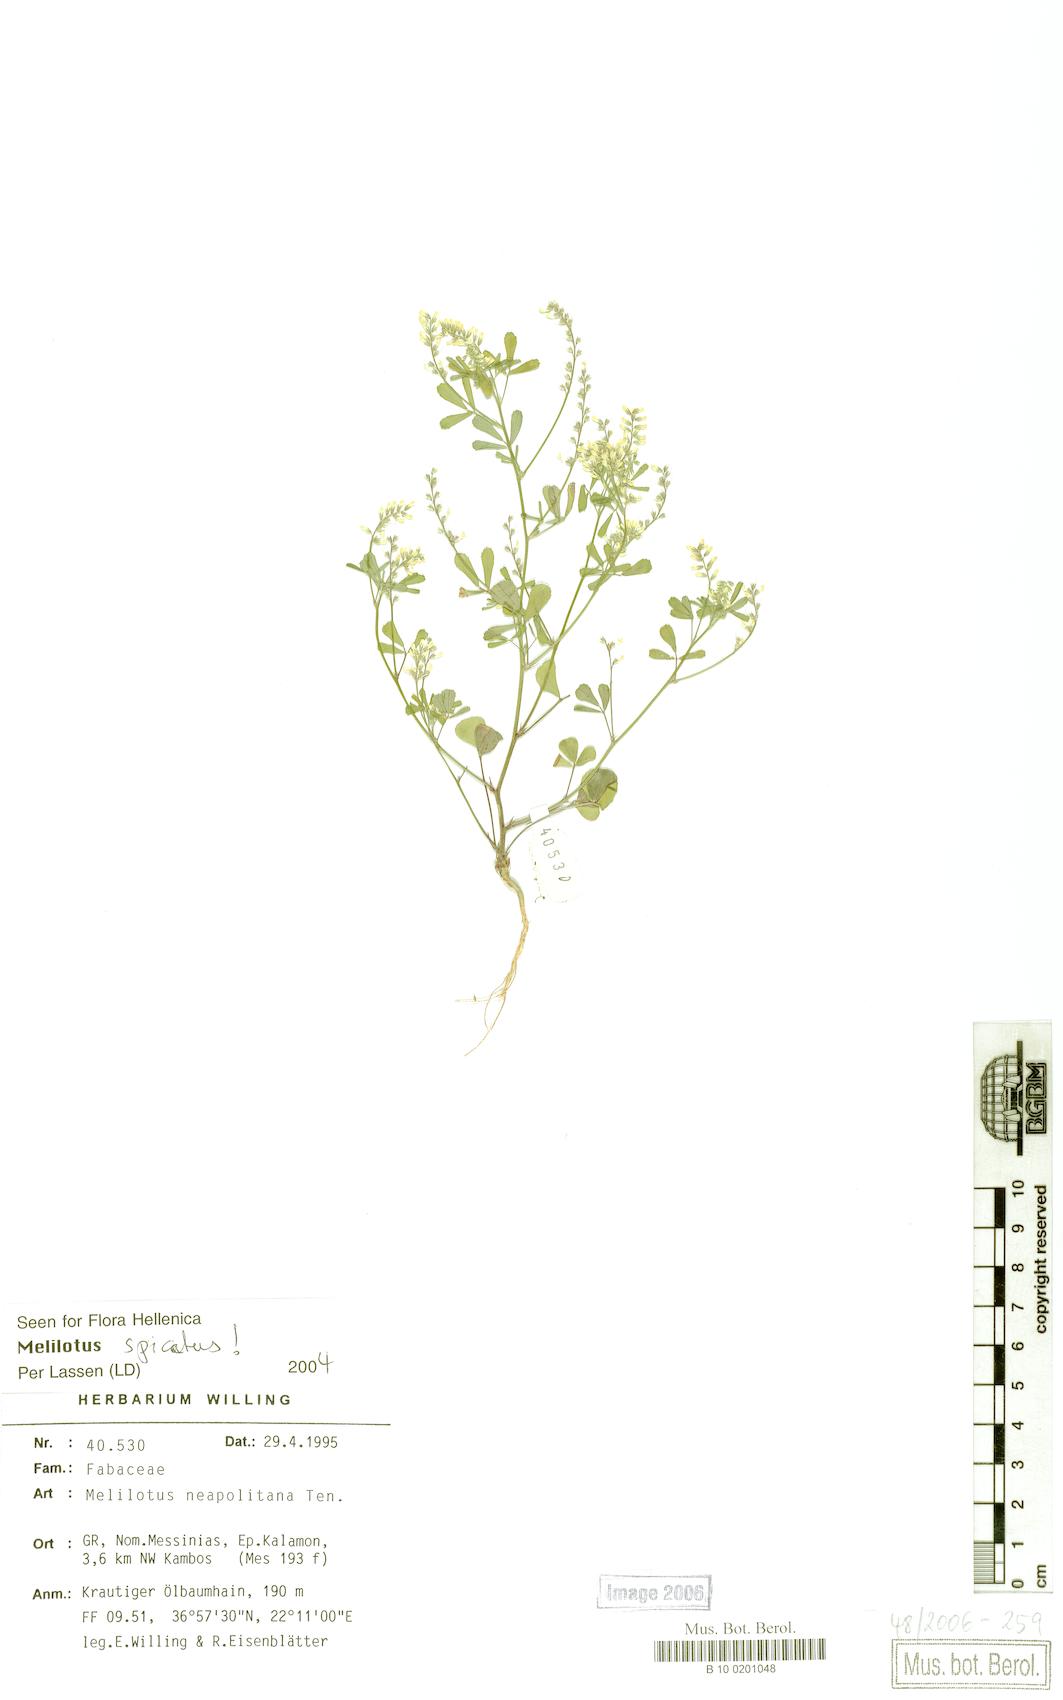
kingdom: Plantae
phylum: Tracheophyta
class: Magnoliopsida
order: Fabales
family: Fabaceae
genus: Melilotus
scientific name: Melilotus neapolitanus
